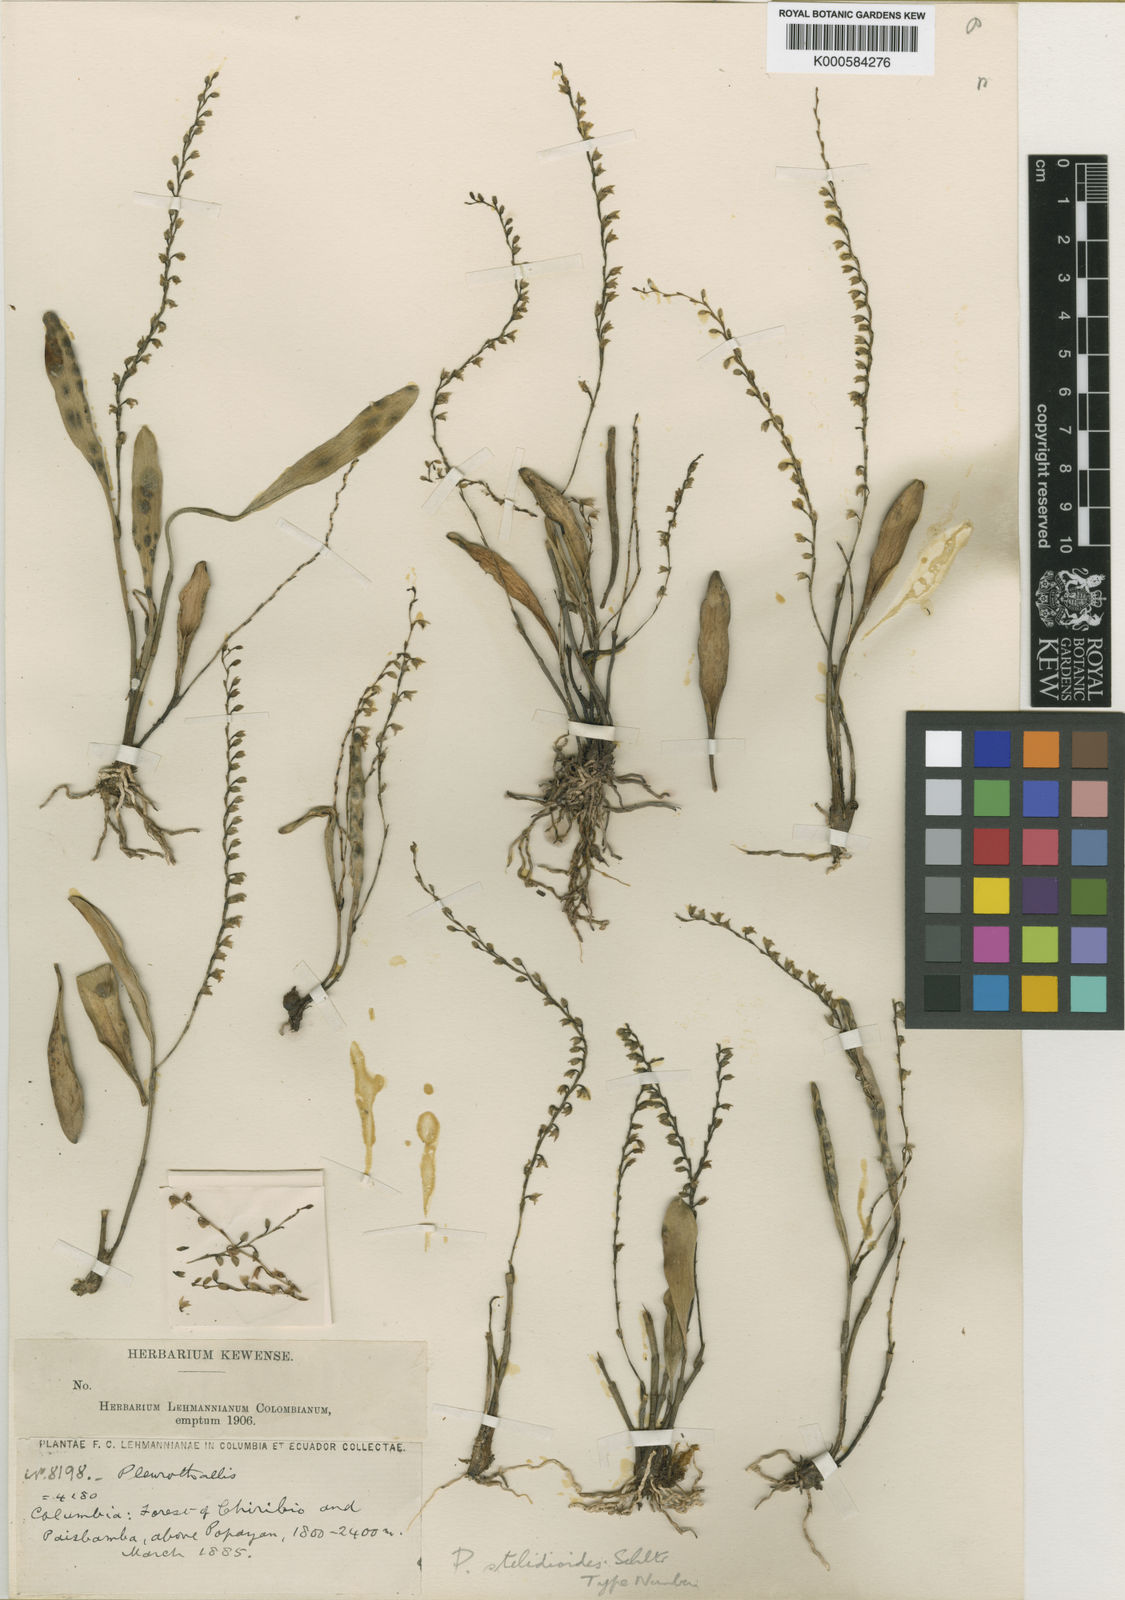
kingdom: Plantae
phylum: Tracheophyta
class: Liliopsida
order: Asparagales
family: Orchidaceae
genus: Stelis
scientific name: Stelis magdalenae
